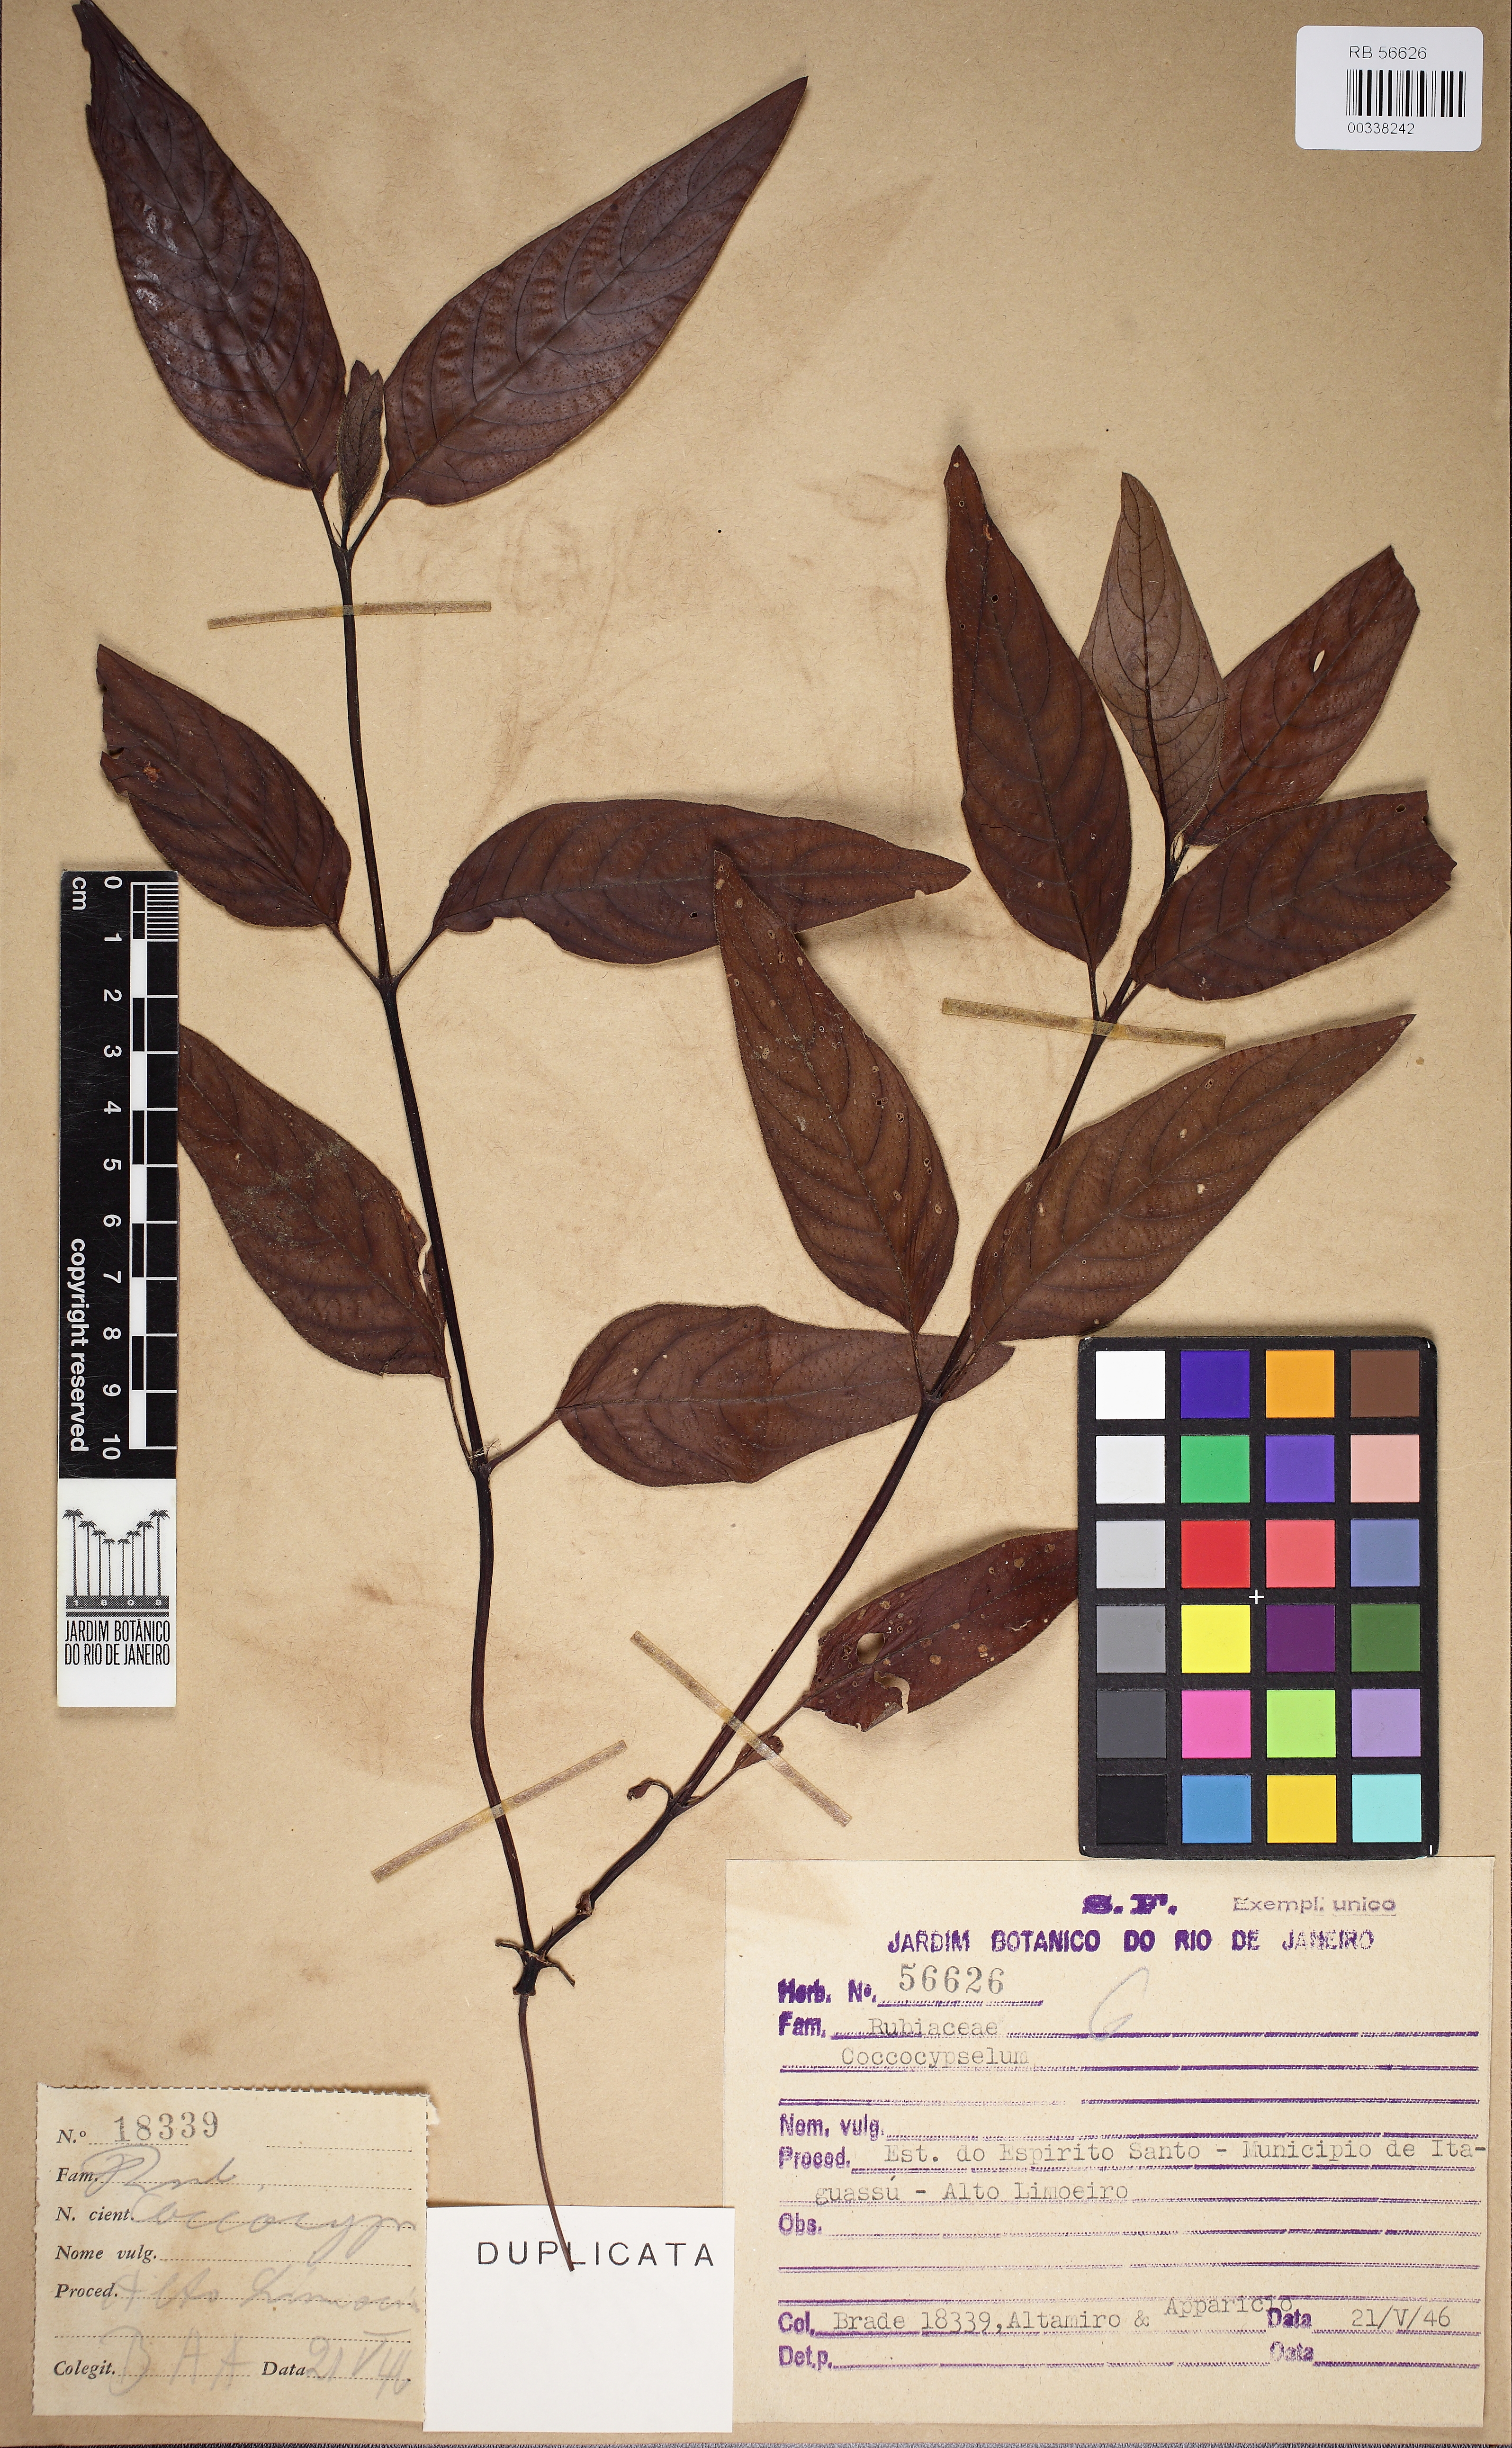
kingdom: Plantae
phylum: Tracheophyta
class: Magnoliopsida
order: Gentianales
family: Rubiaceae
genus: Coccocypselum
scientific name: Coccocypselum
